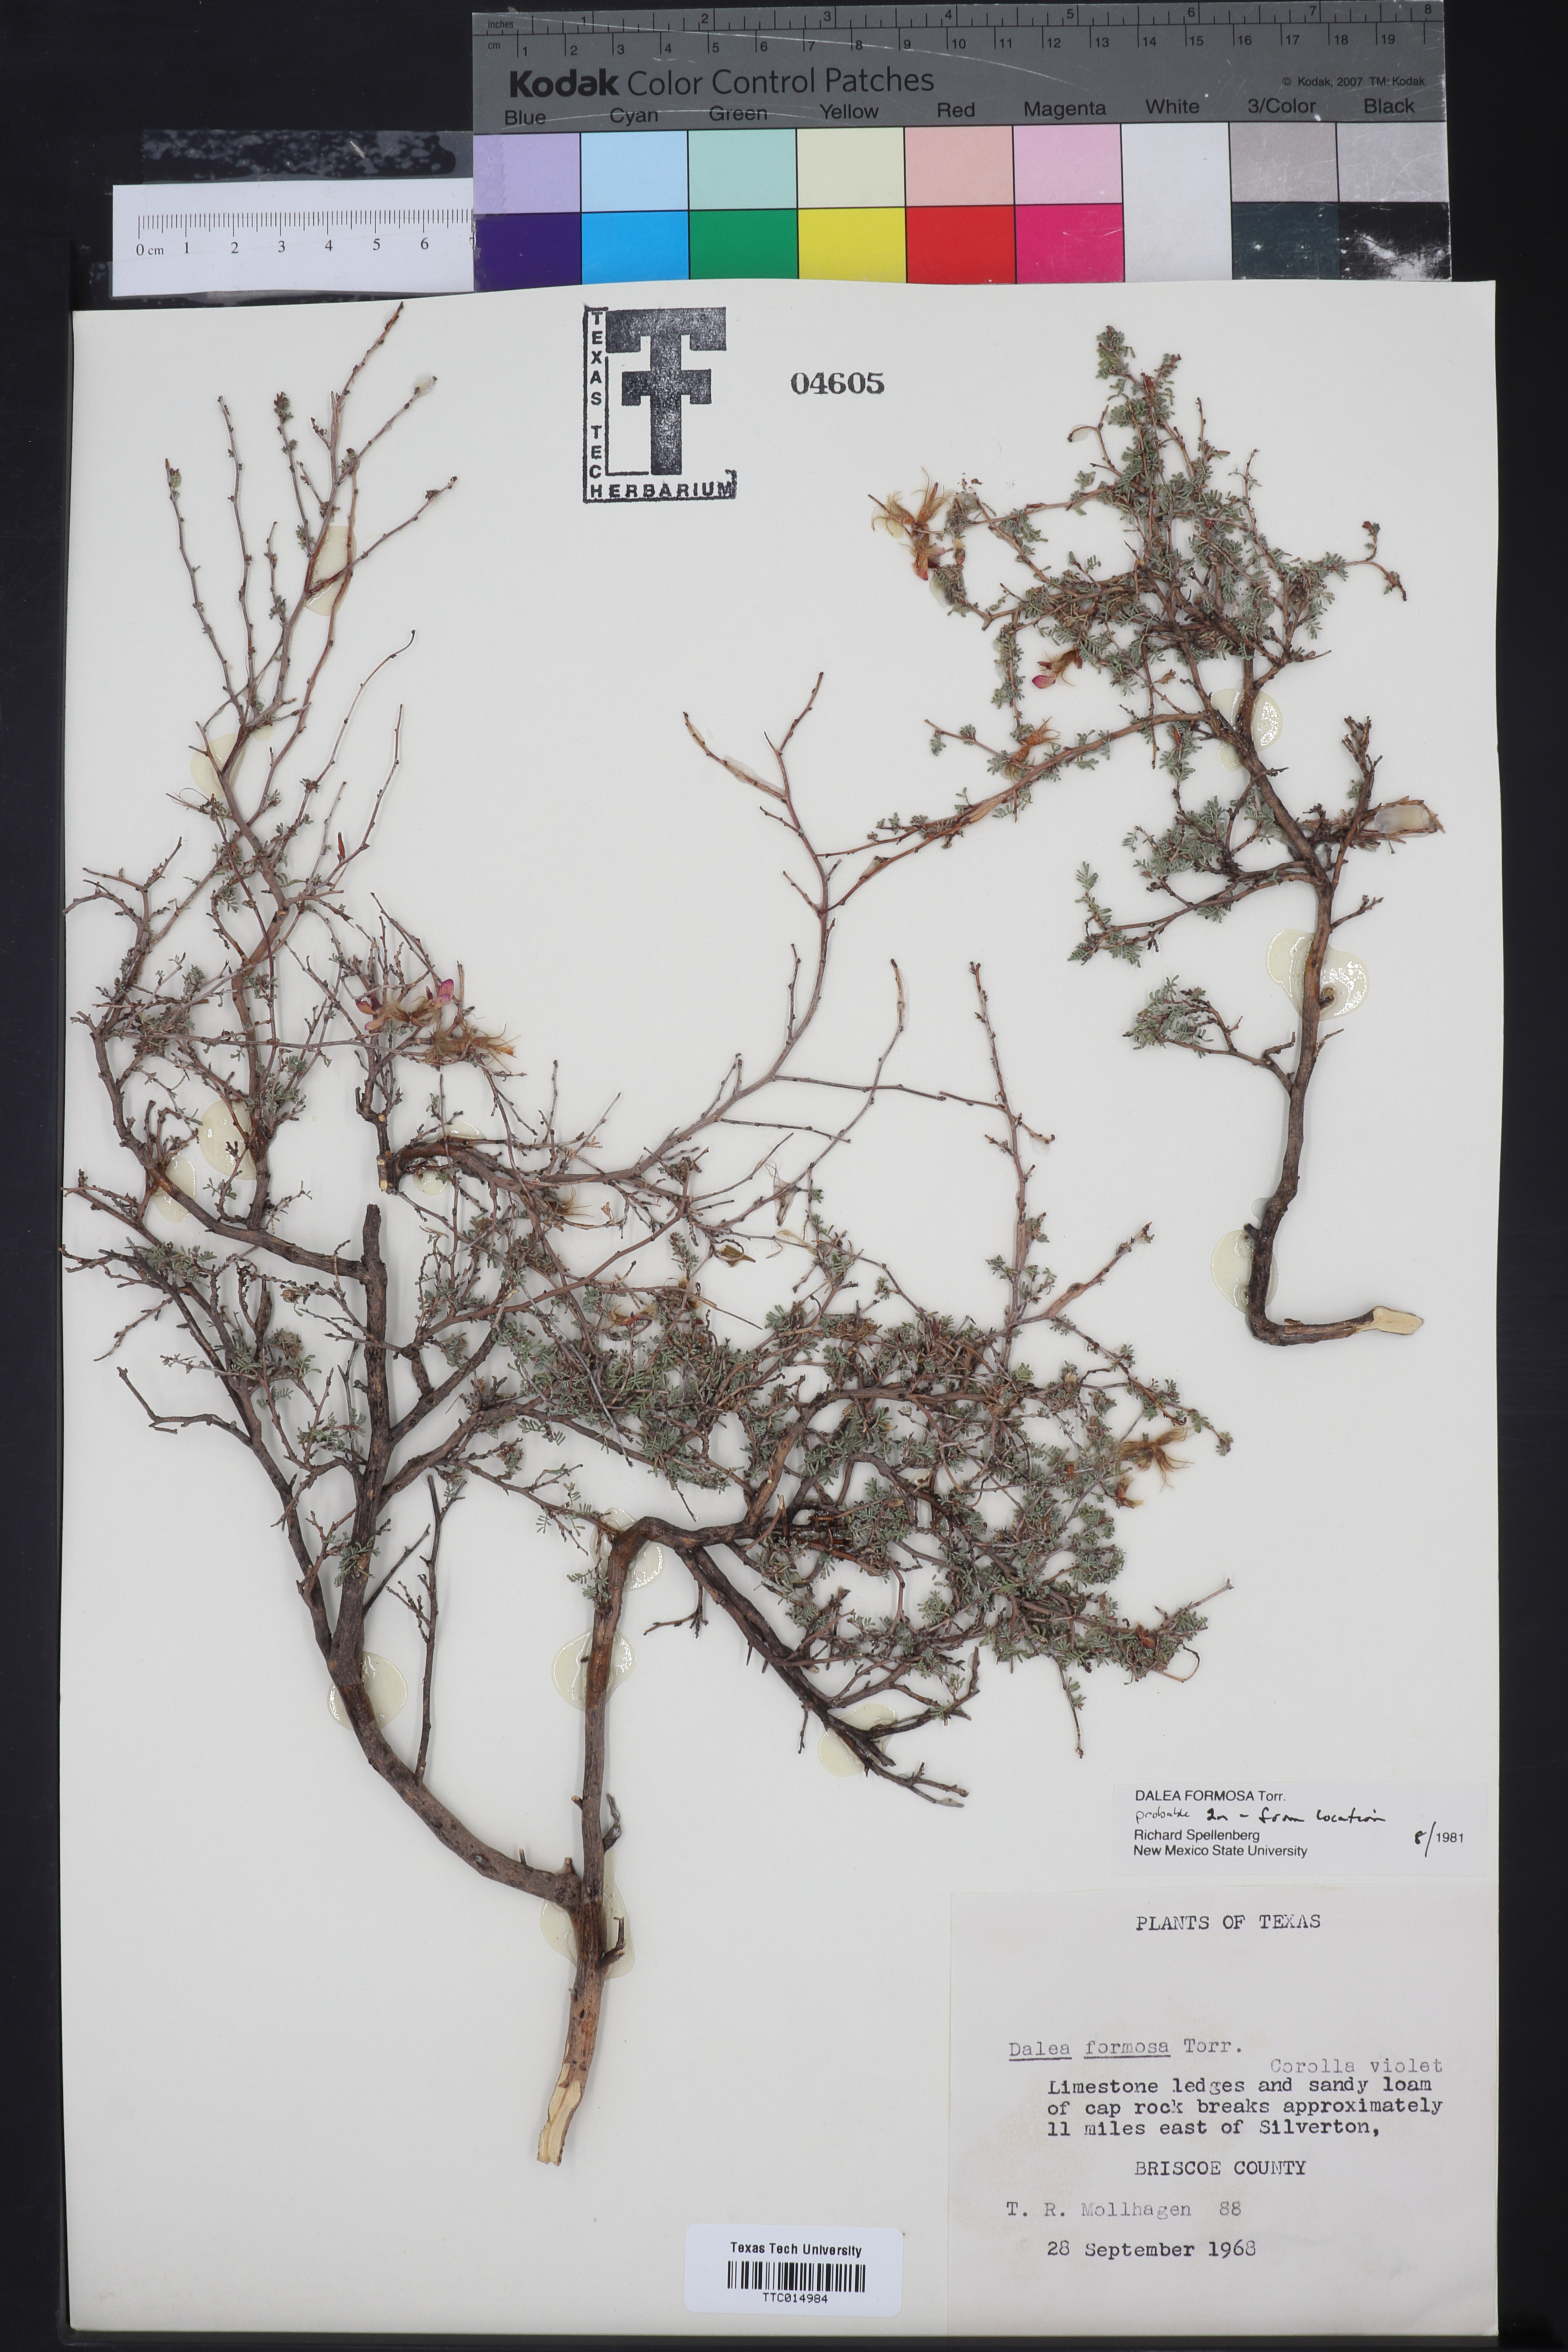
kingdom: Plantae
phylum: Tracheophyta
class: Magnoliopsida
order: Fabales
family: Fabaceae
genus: Dalea
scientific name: Dalea formosa
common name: Feather-plume dalea
